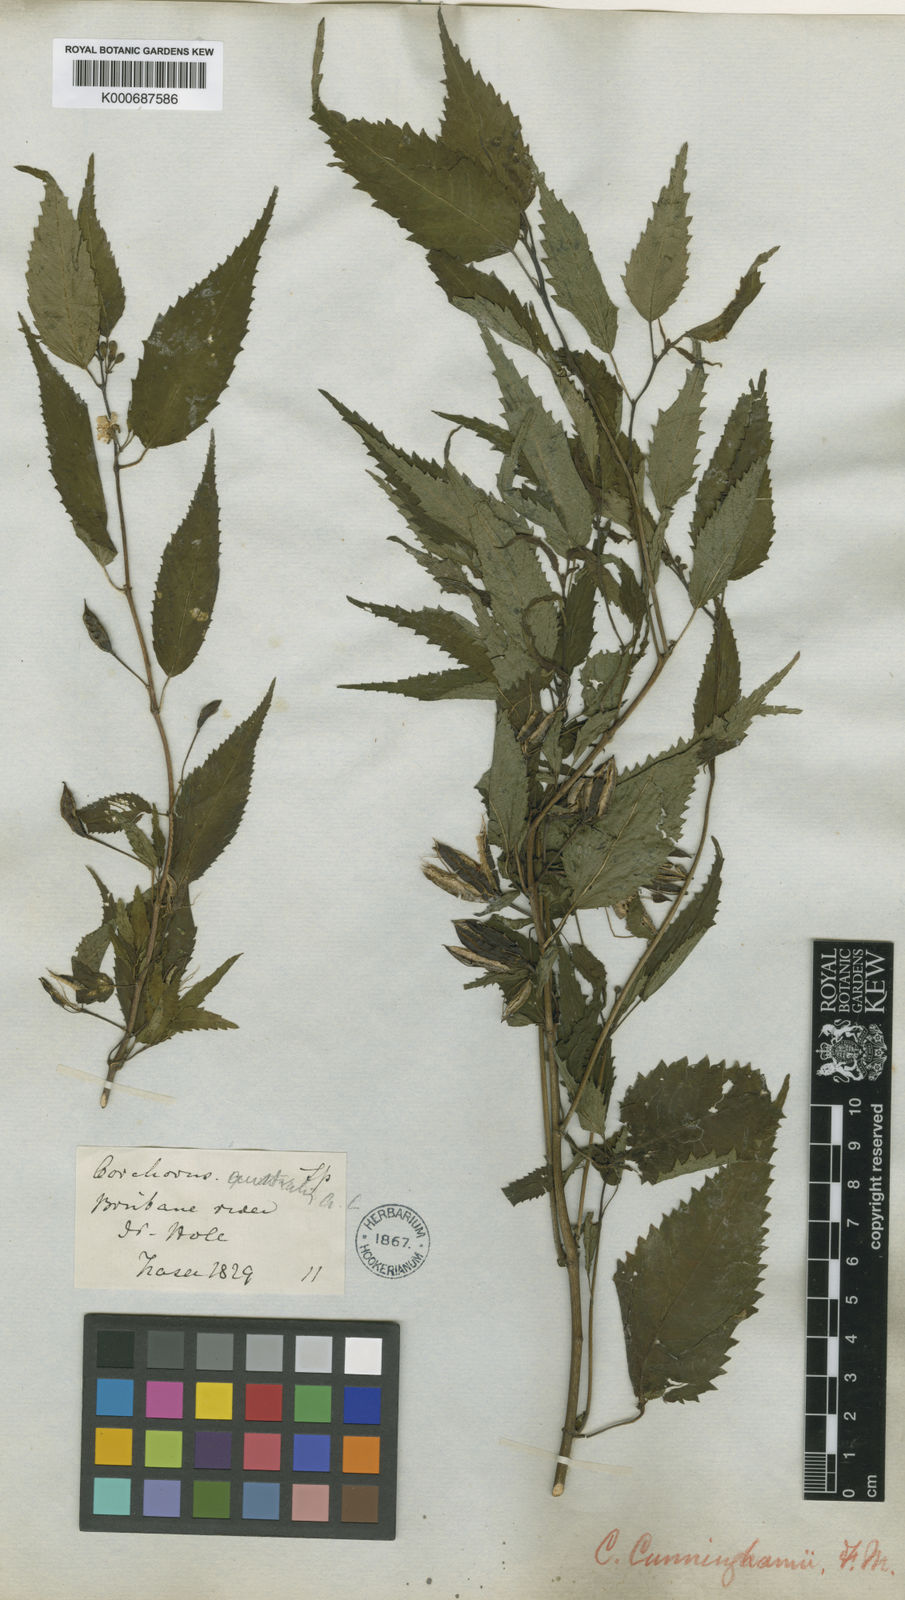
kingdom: Plantae
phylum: Tracheophyta
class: Magnoliopsida
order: Malvales
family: Malvaceae
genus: Corchorus
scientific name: Corchorus cunninghamii
